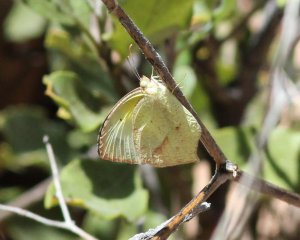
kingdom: Animalia
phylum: Arthropoda
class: Insecta
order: Lepidoptera
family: Pieridae
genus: Eurema
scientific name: Eurema mexicana
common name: Mexican Yellow
